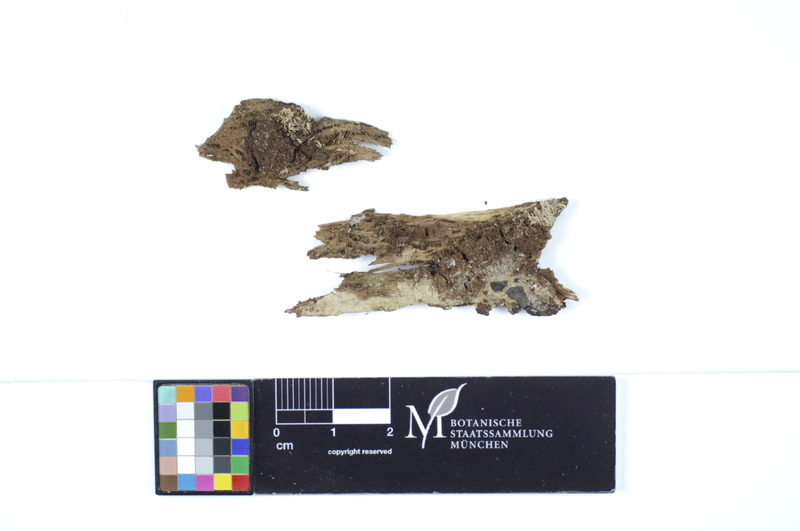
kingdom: Plantae
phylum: Tracheophyta
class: Magnoliopsida
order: Malvales
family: Malvaceae
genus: Tilia
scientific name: Tilia
